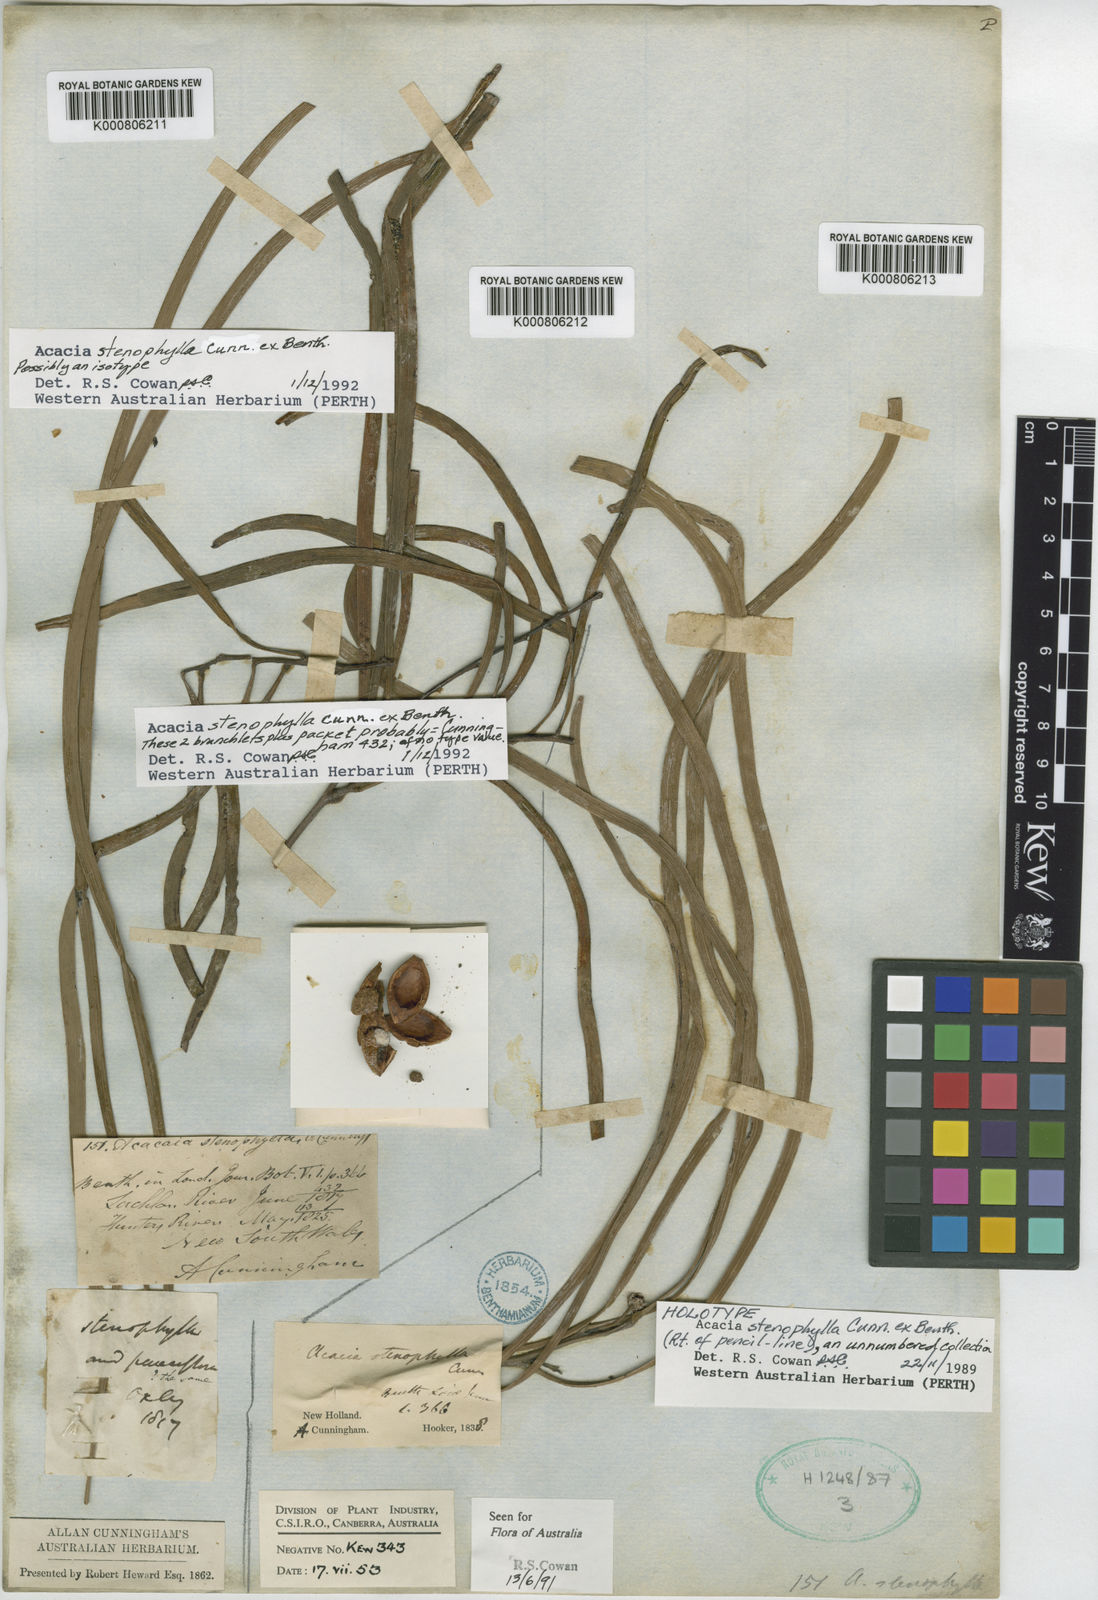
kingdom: Plantae
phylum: Tracheophyta
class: Magnoliopsida
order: Fabales
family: Fabaceae
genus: Acacia
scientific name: Acacia stenophylla
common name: River cooba
